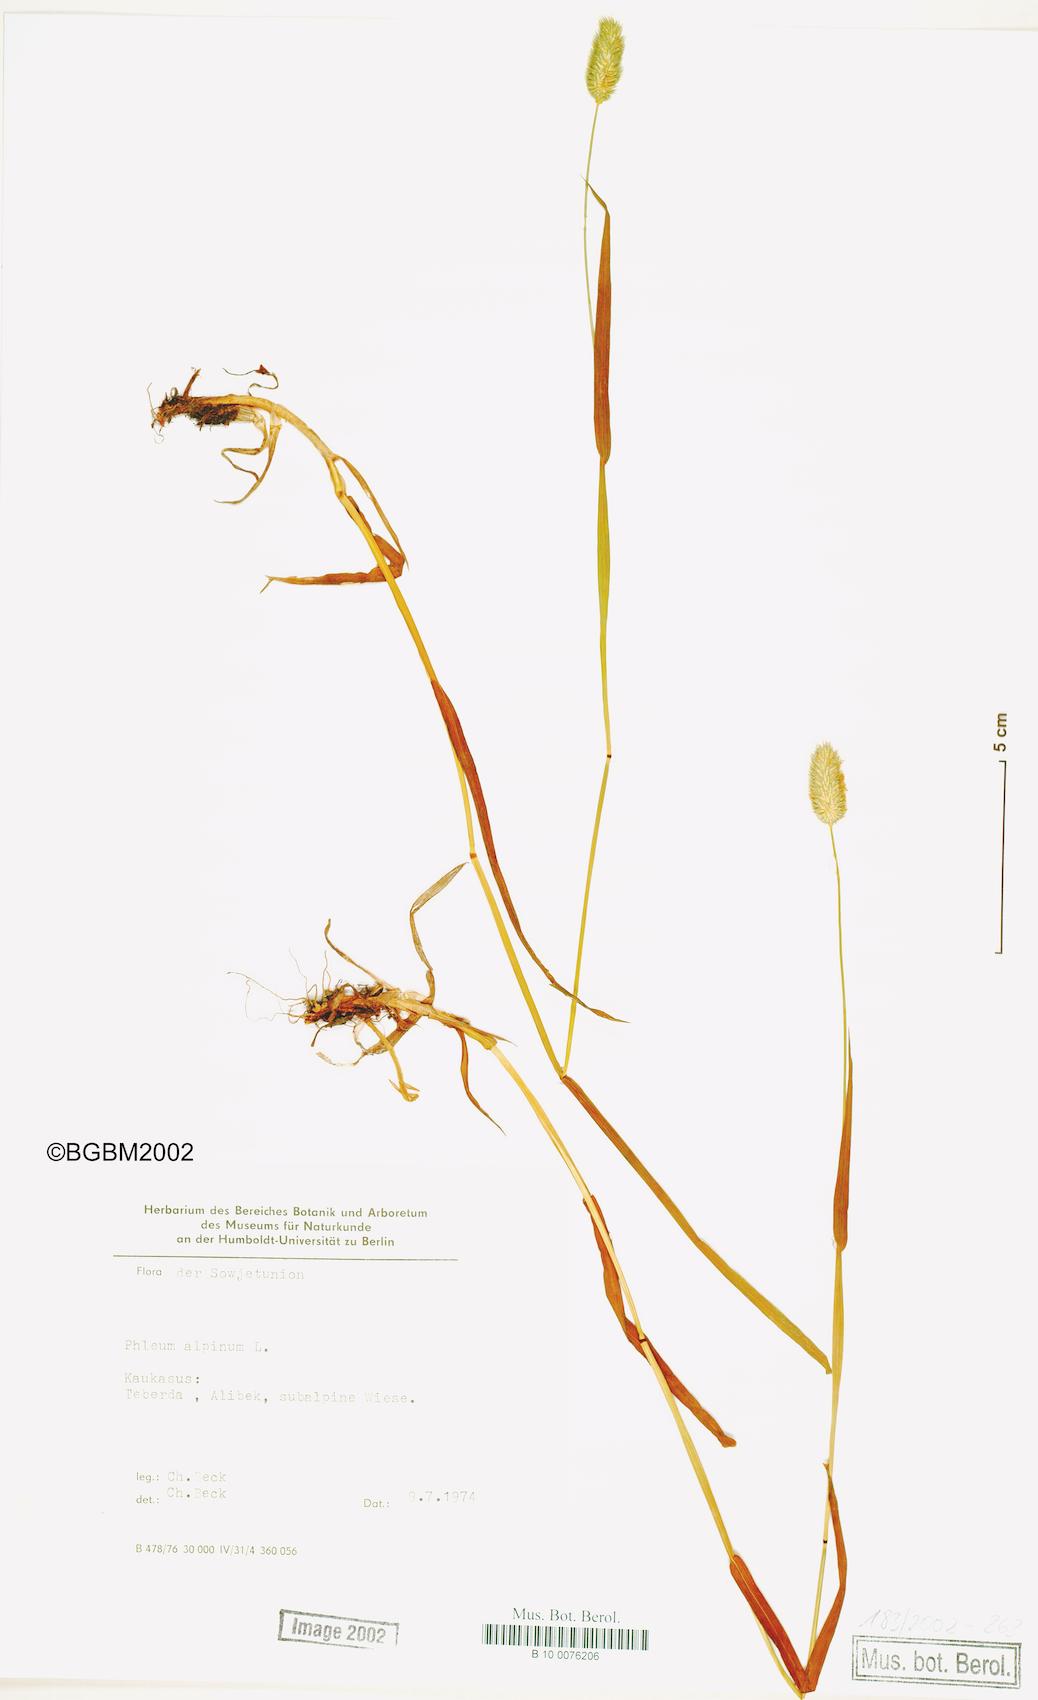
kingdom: Plantae
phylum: Tracheophyta
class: Liliopsida
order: Poales
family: Poaceae
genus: Phleum
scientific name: Phleum alpinum
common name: Alpine cat's-tail
